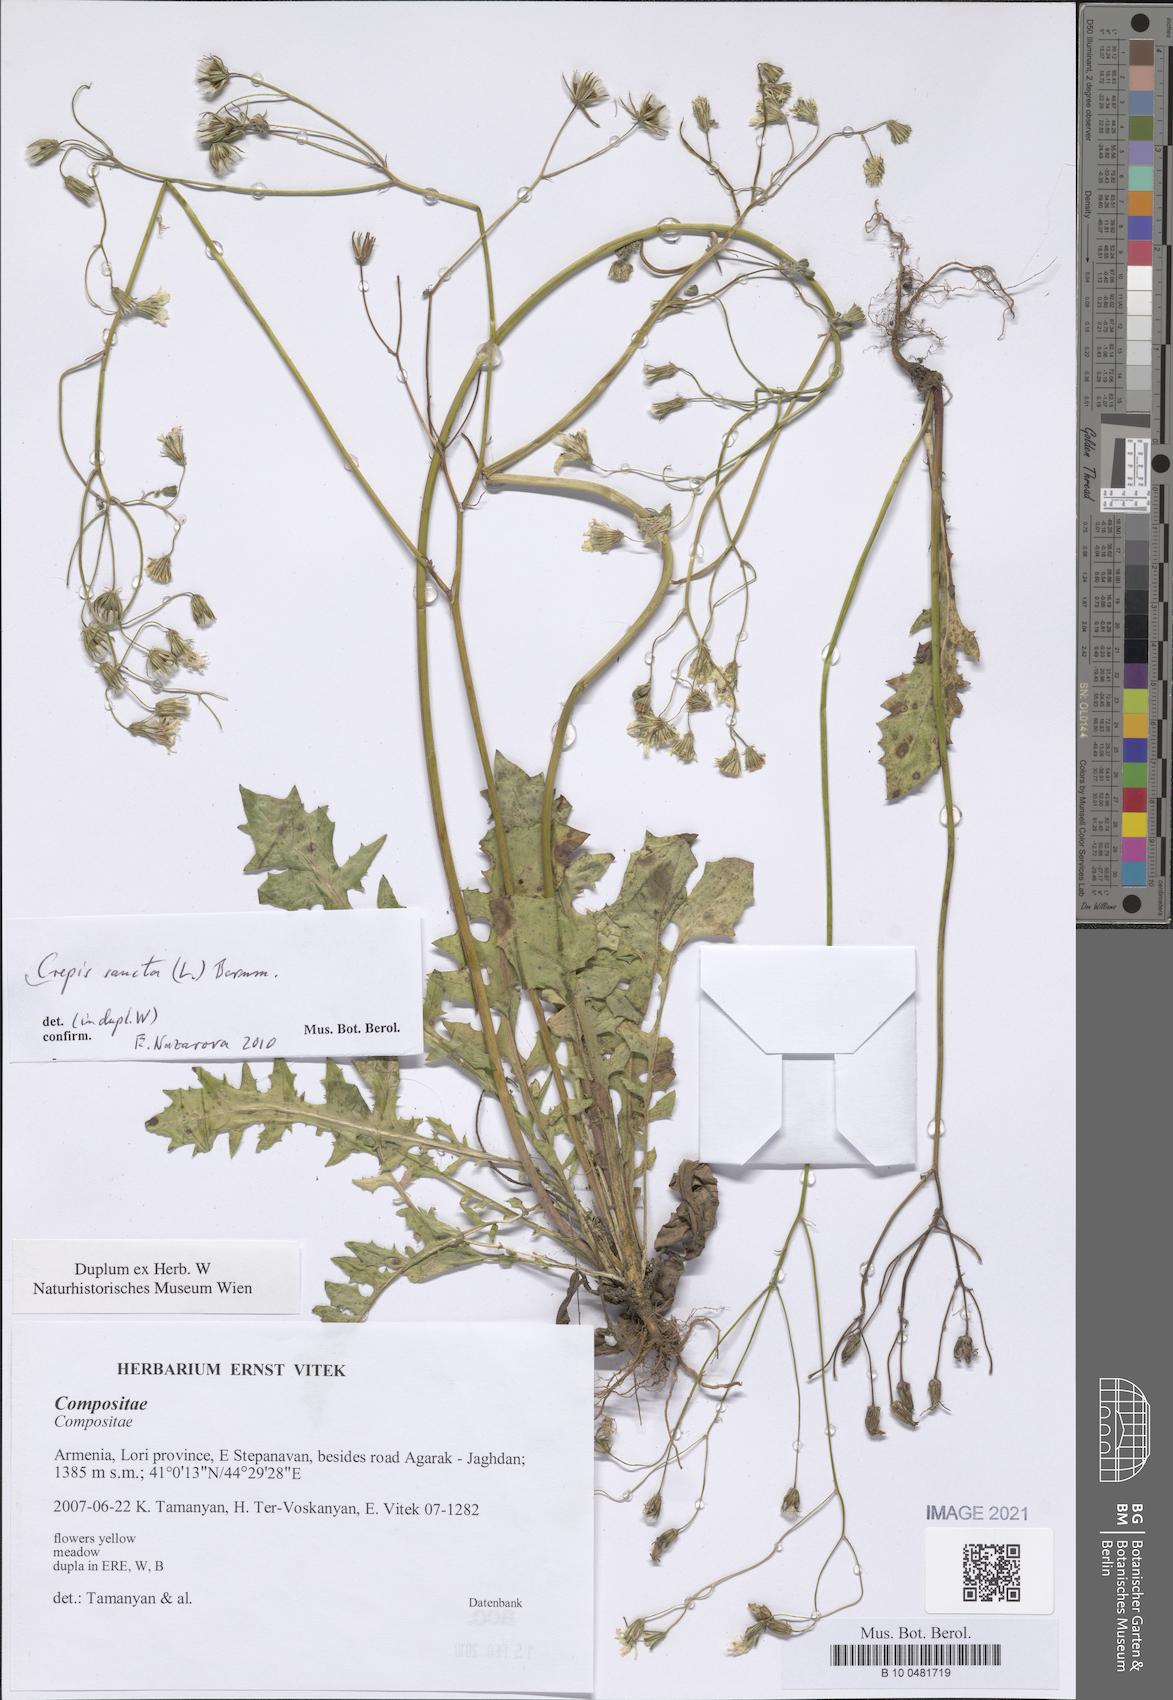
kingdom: Plantae
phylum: Tracheophyta
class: Magnoliopsida
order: Asterales
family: Asteraceae
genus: Crepis
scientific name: Crepis sancta
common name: Hawk's-beard
